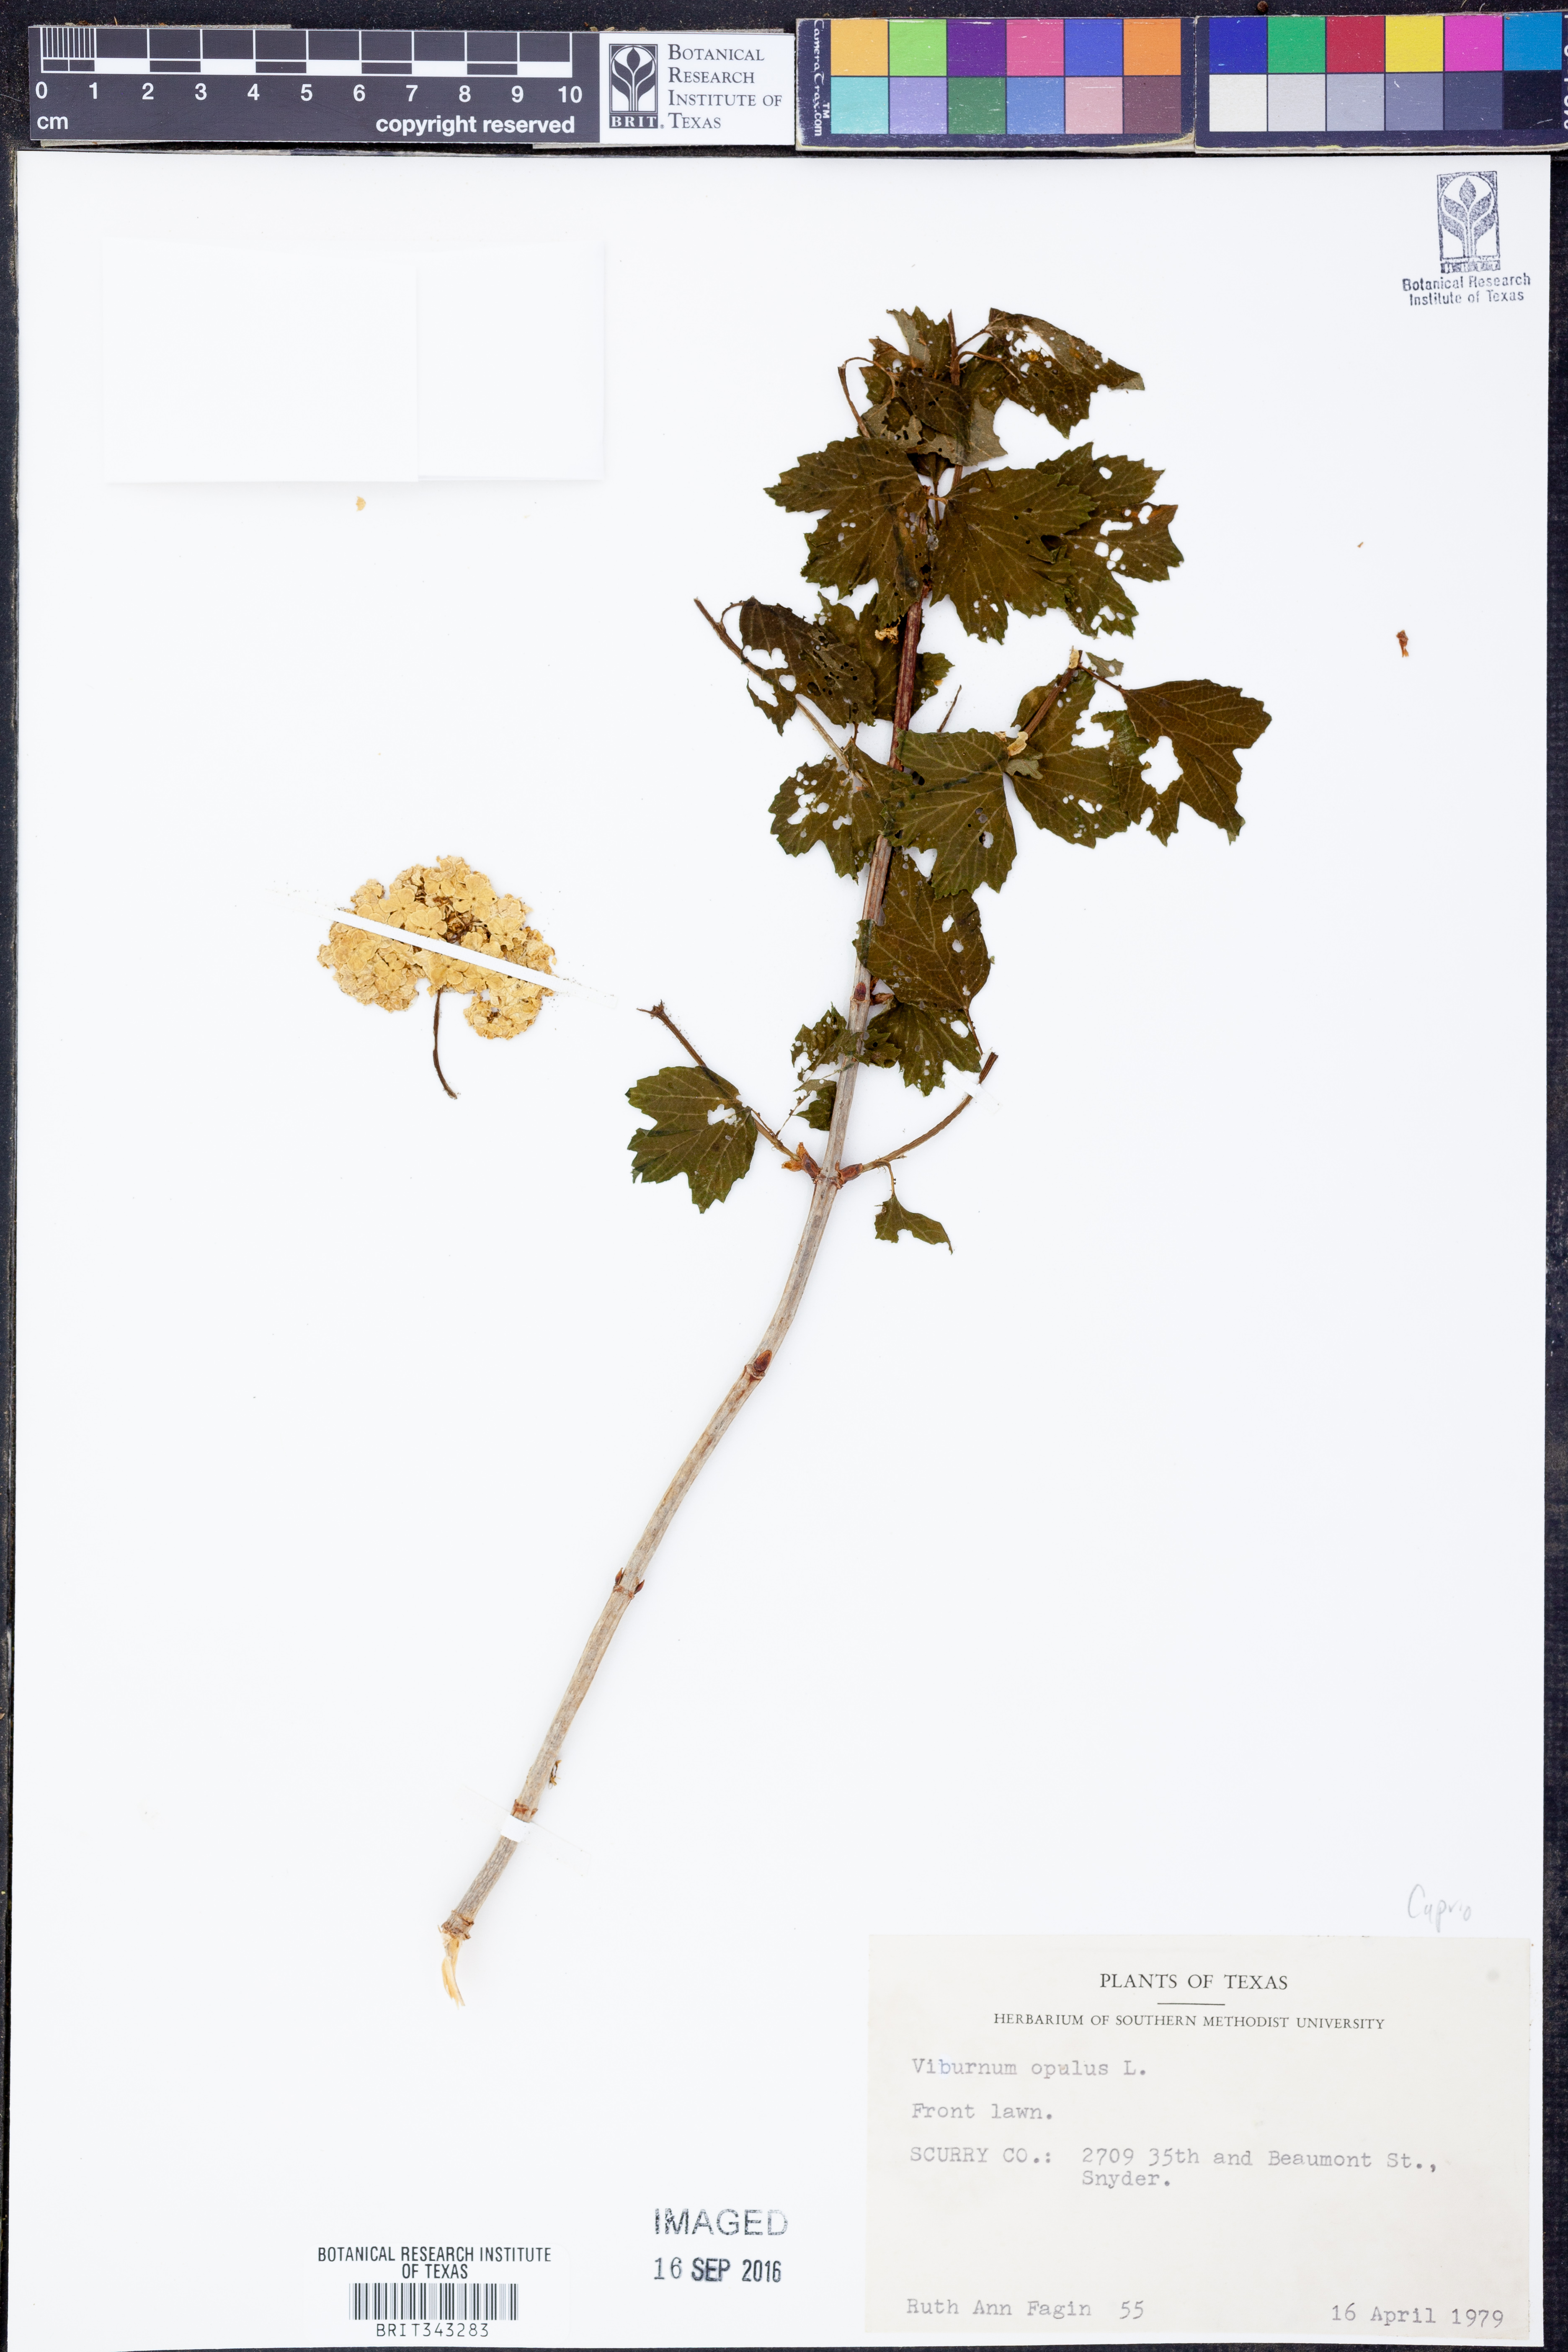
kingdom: Plantae
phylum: Tracheophyta
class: Magnoliopsida
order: Dipsacales
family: Viburnaceae
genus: Viburnum
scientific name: Viburnum opulus
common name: Guelder-rose
